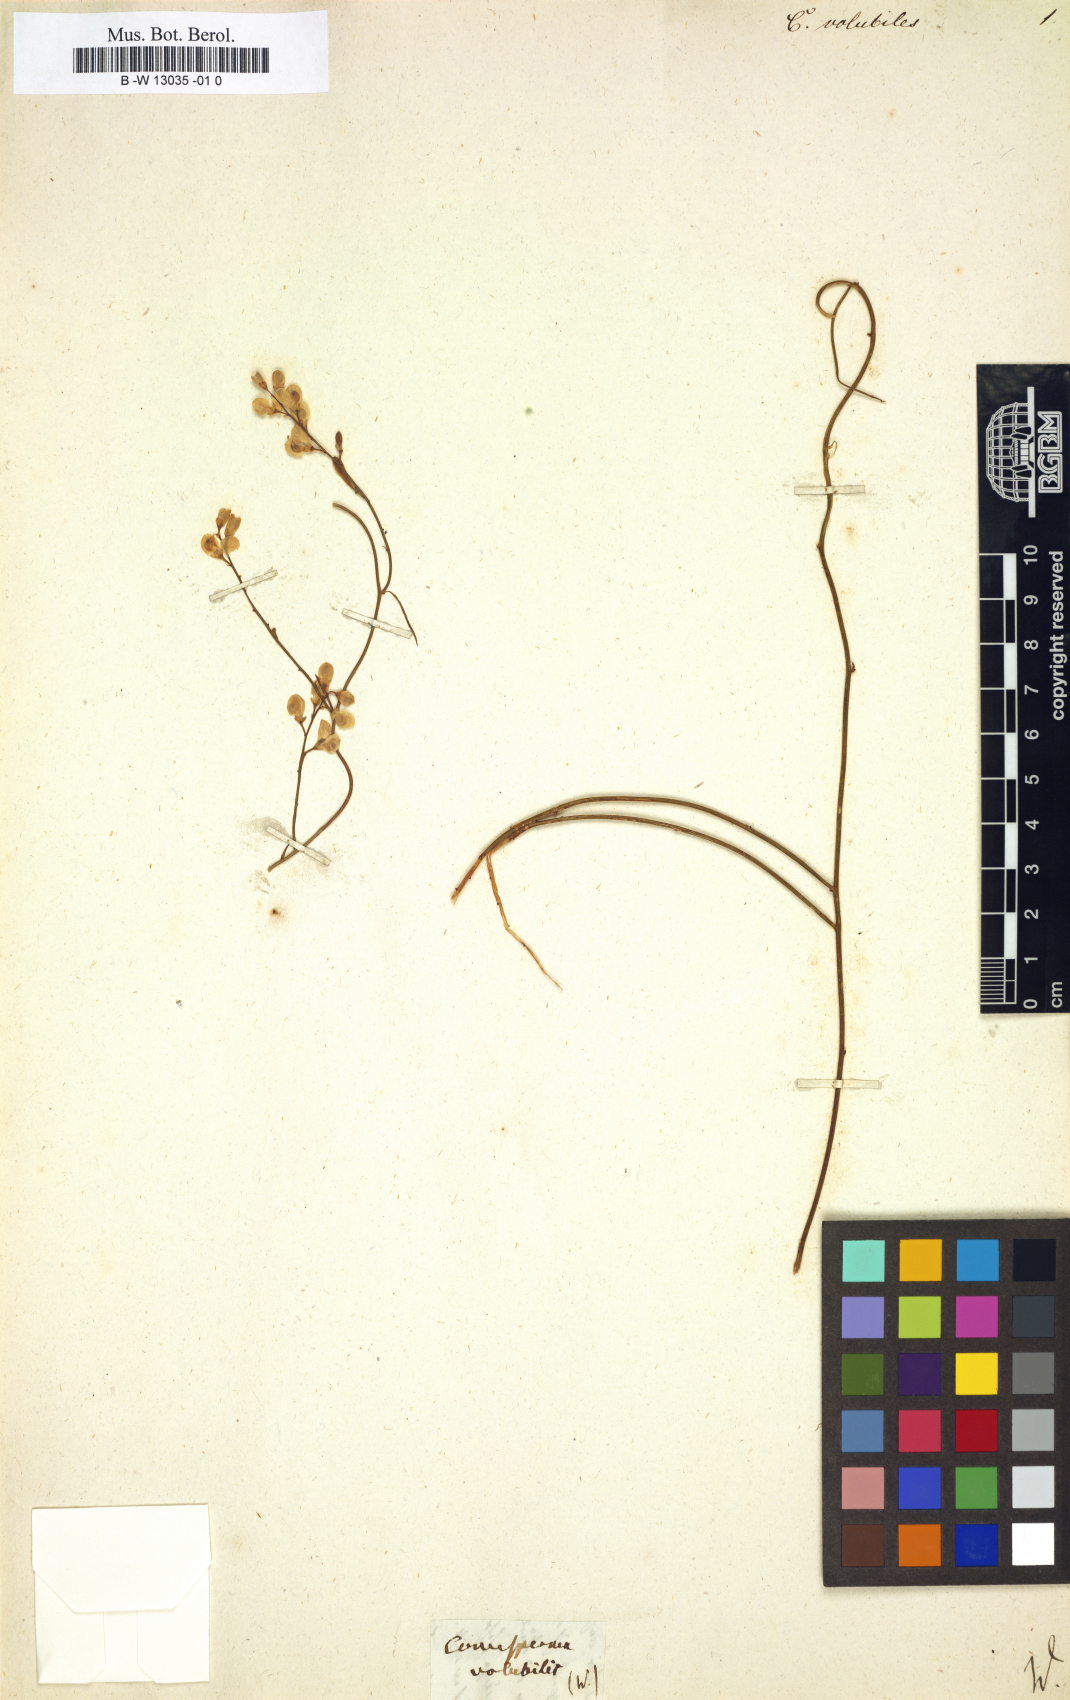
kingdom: Plantae
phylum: Tracheophyta
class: Magnoliopsida
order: Fabales
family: Polygalaceae
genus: Comesperma
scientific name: Comesperma volubilis
